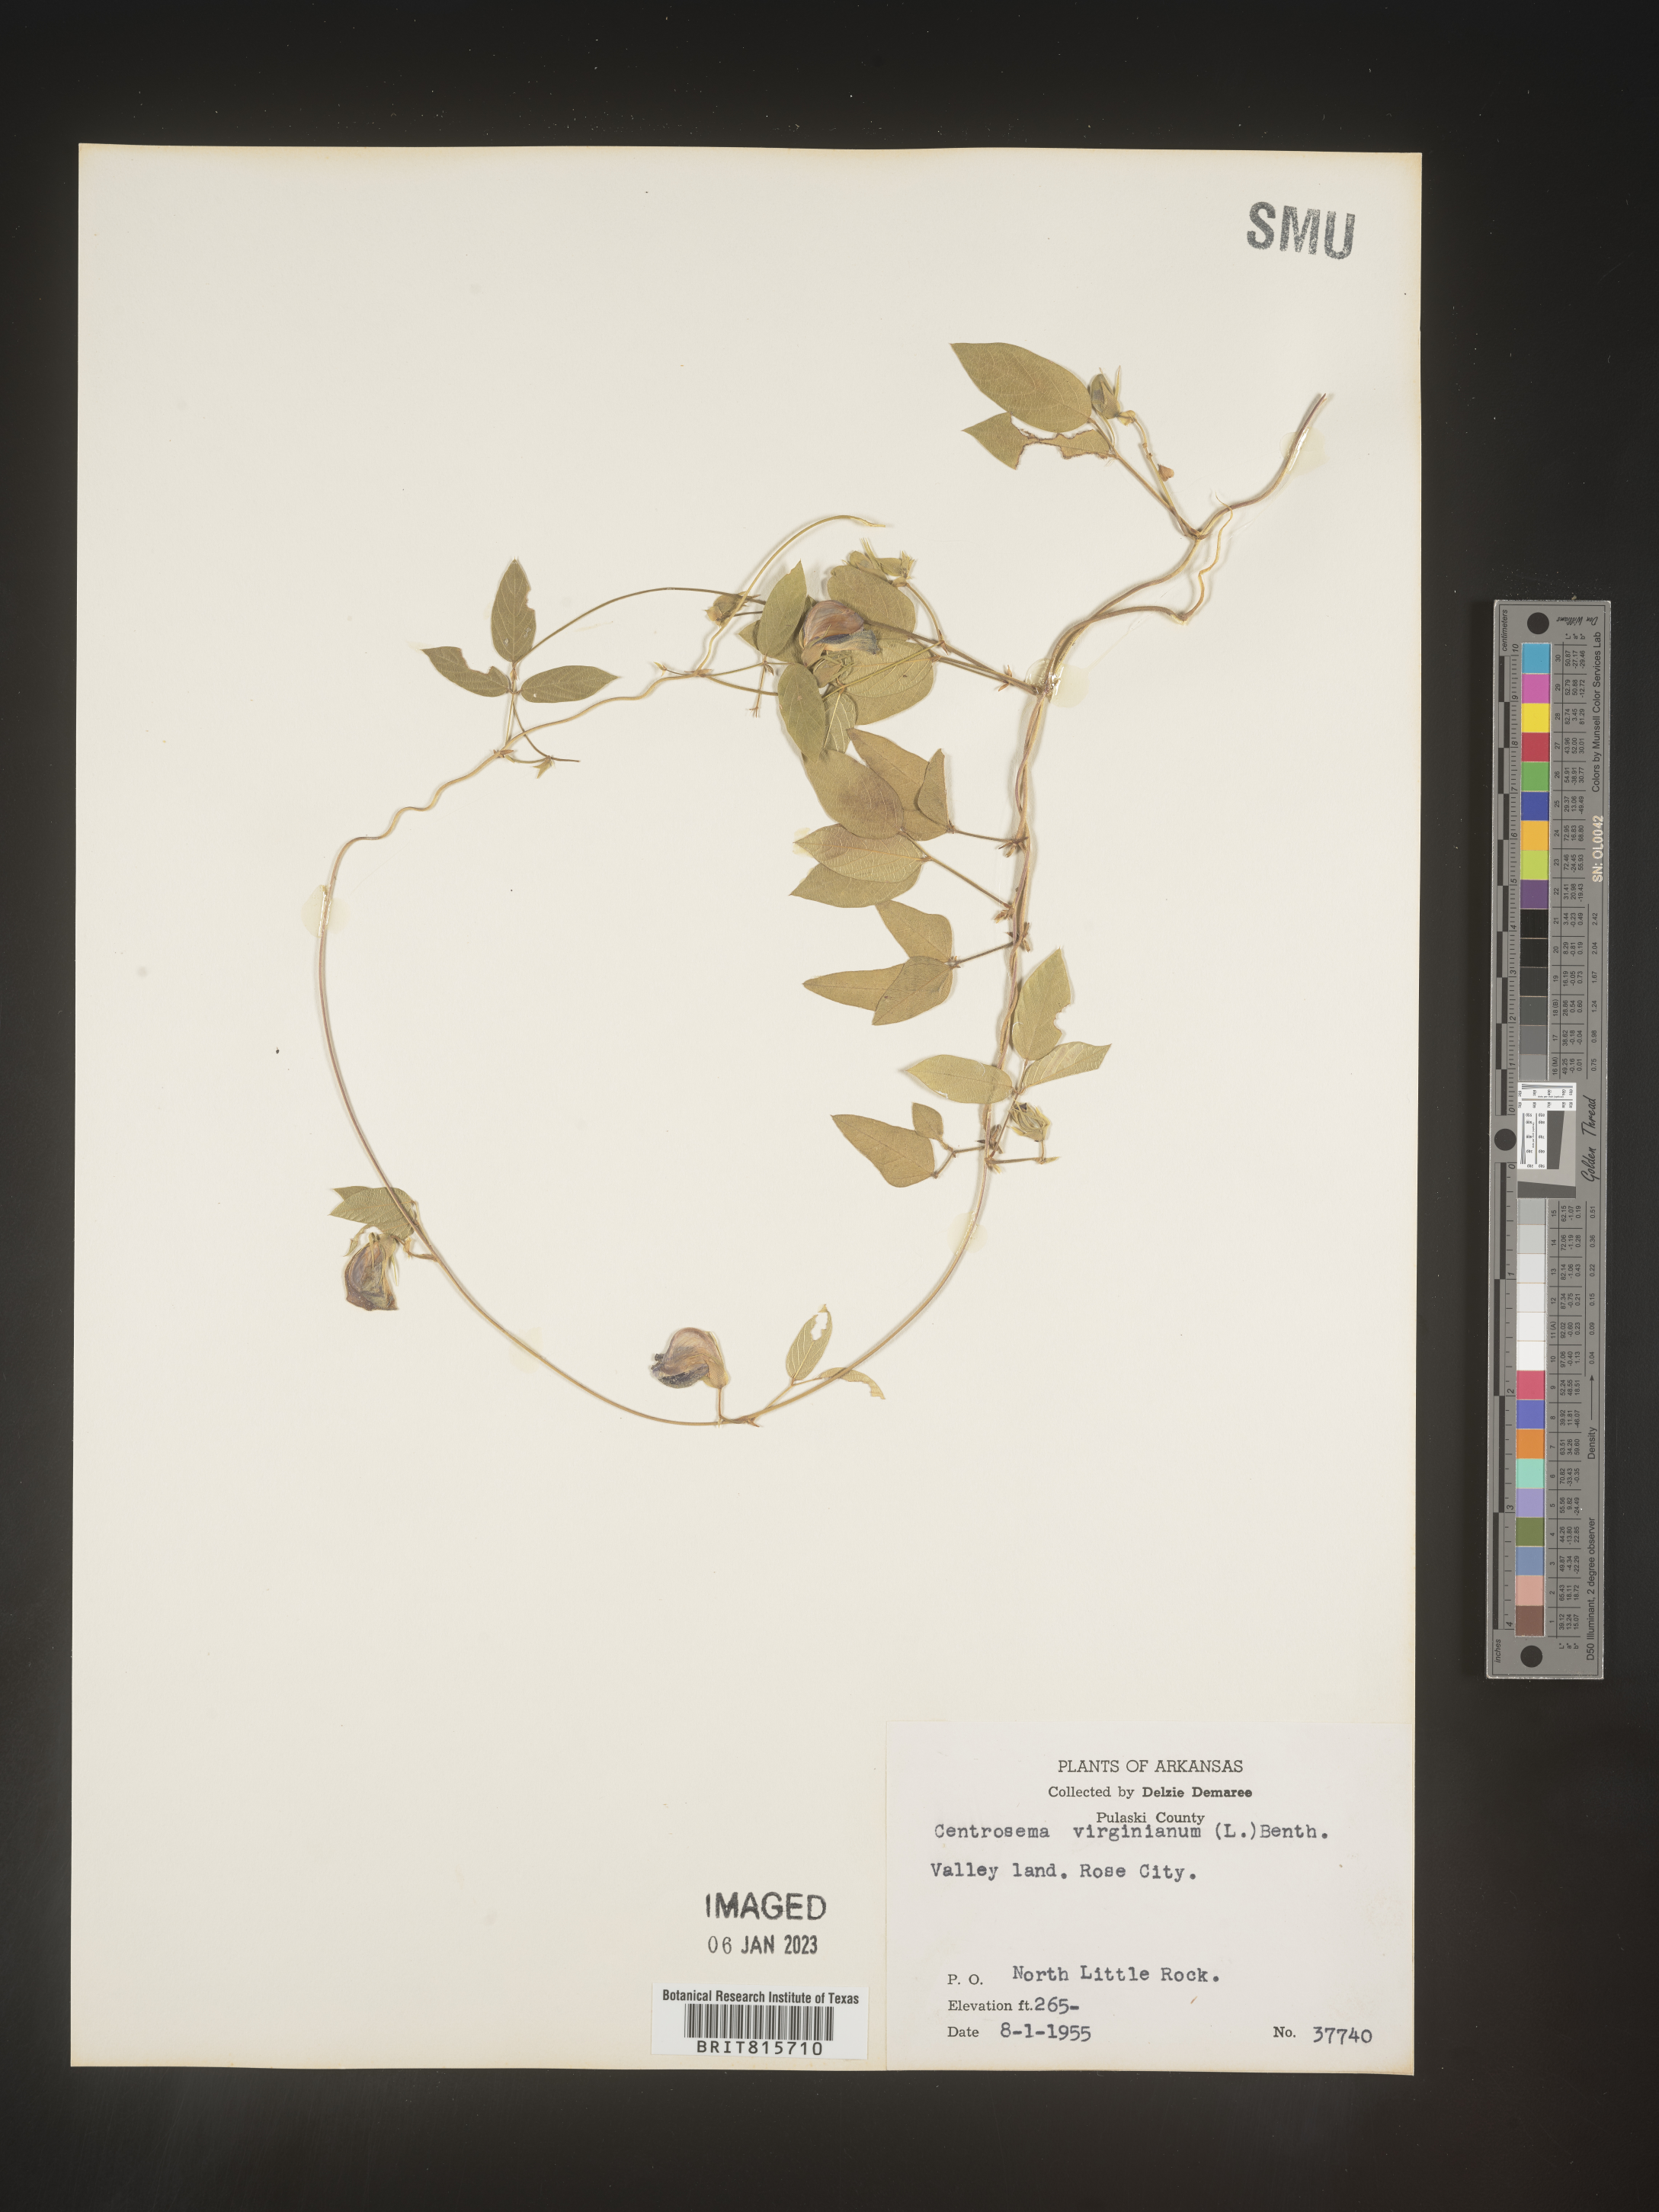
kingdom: Plantae
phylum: Tracheophyta
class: Magnoliopsida
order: Fabales
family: Fabaceae
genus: Centrosema
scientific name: Centrosema virginianum
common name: Butterfly-pea
